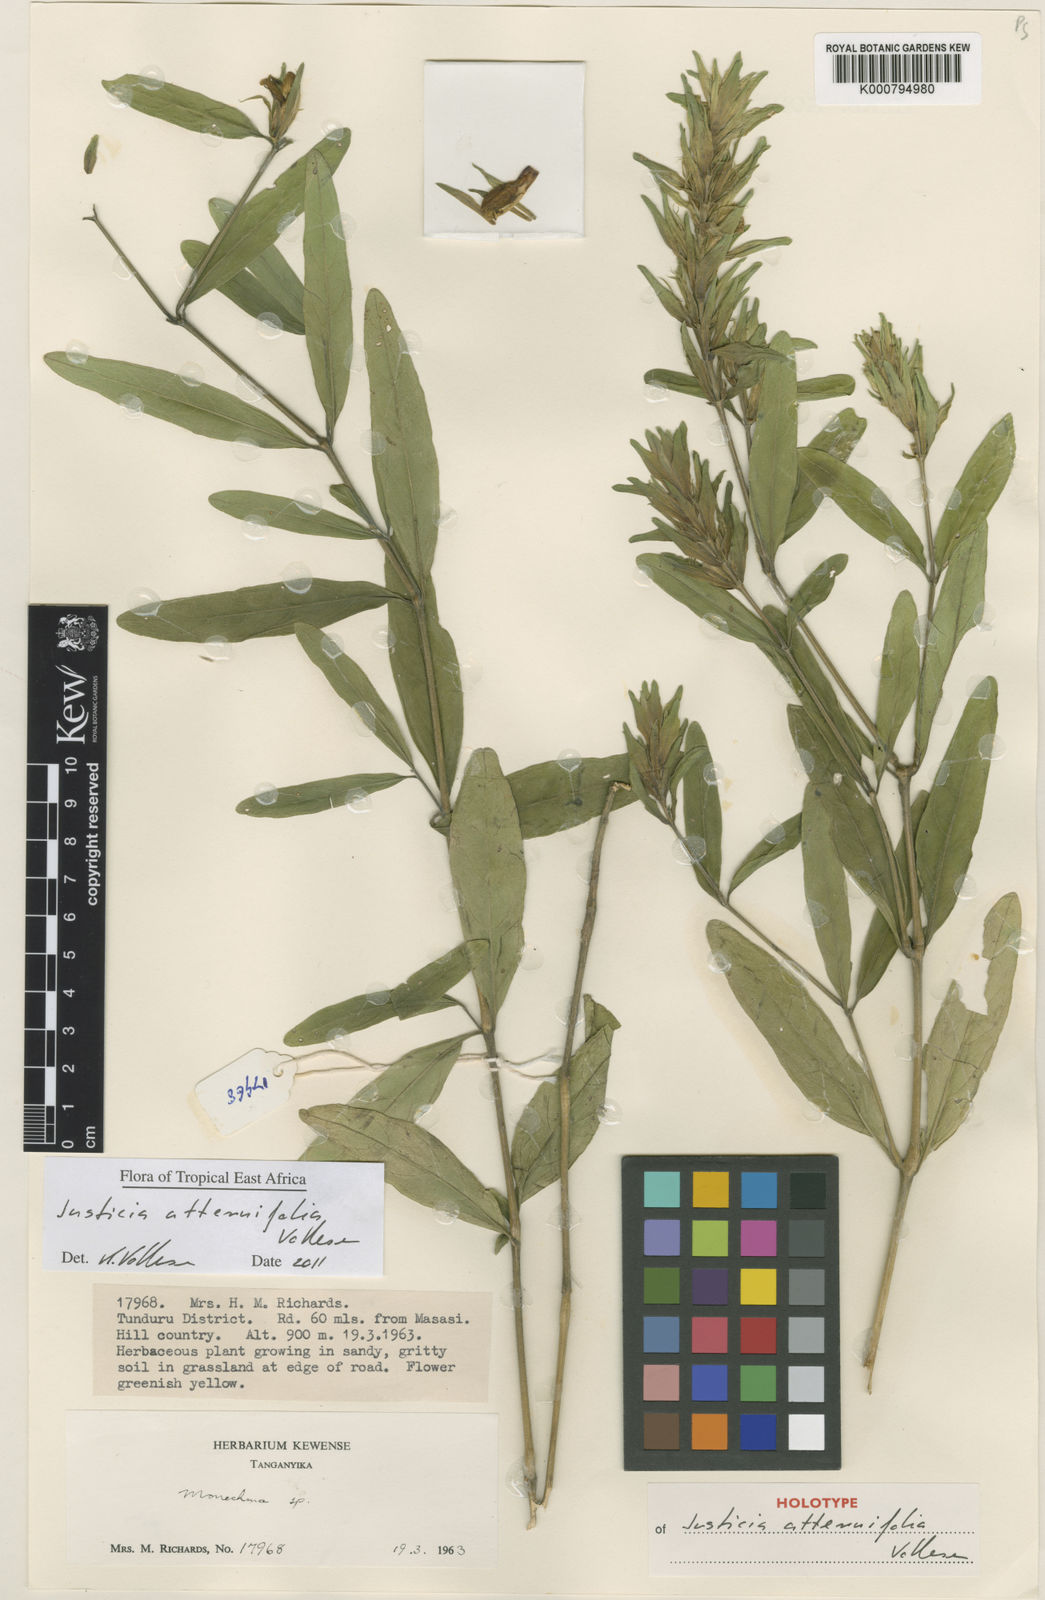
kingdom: Plantae
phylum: Tracheophyta
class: Magnoliopsida
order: Lamiales
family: Acanthaceae
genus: Monechma
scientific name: Monechma attenuifolia
